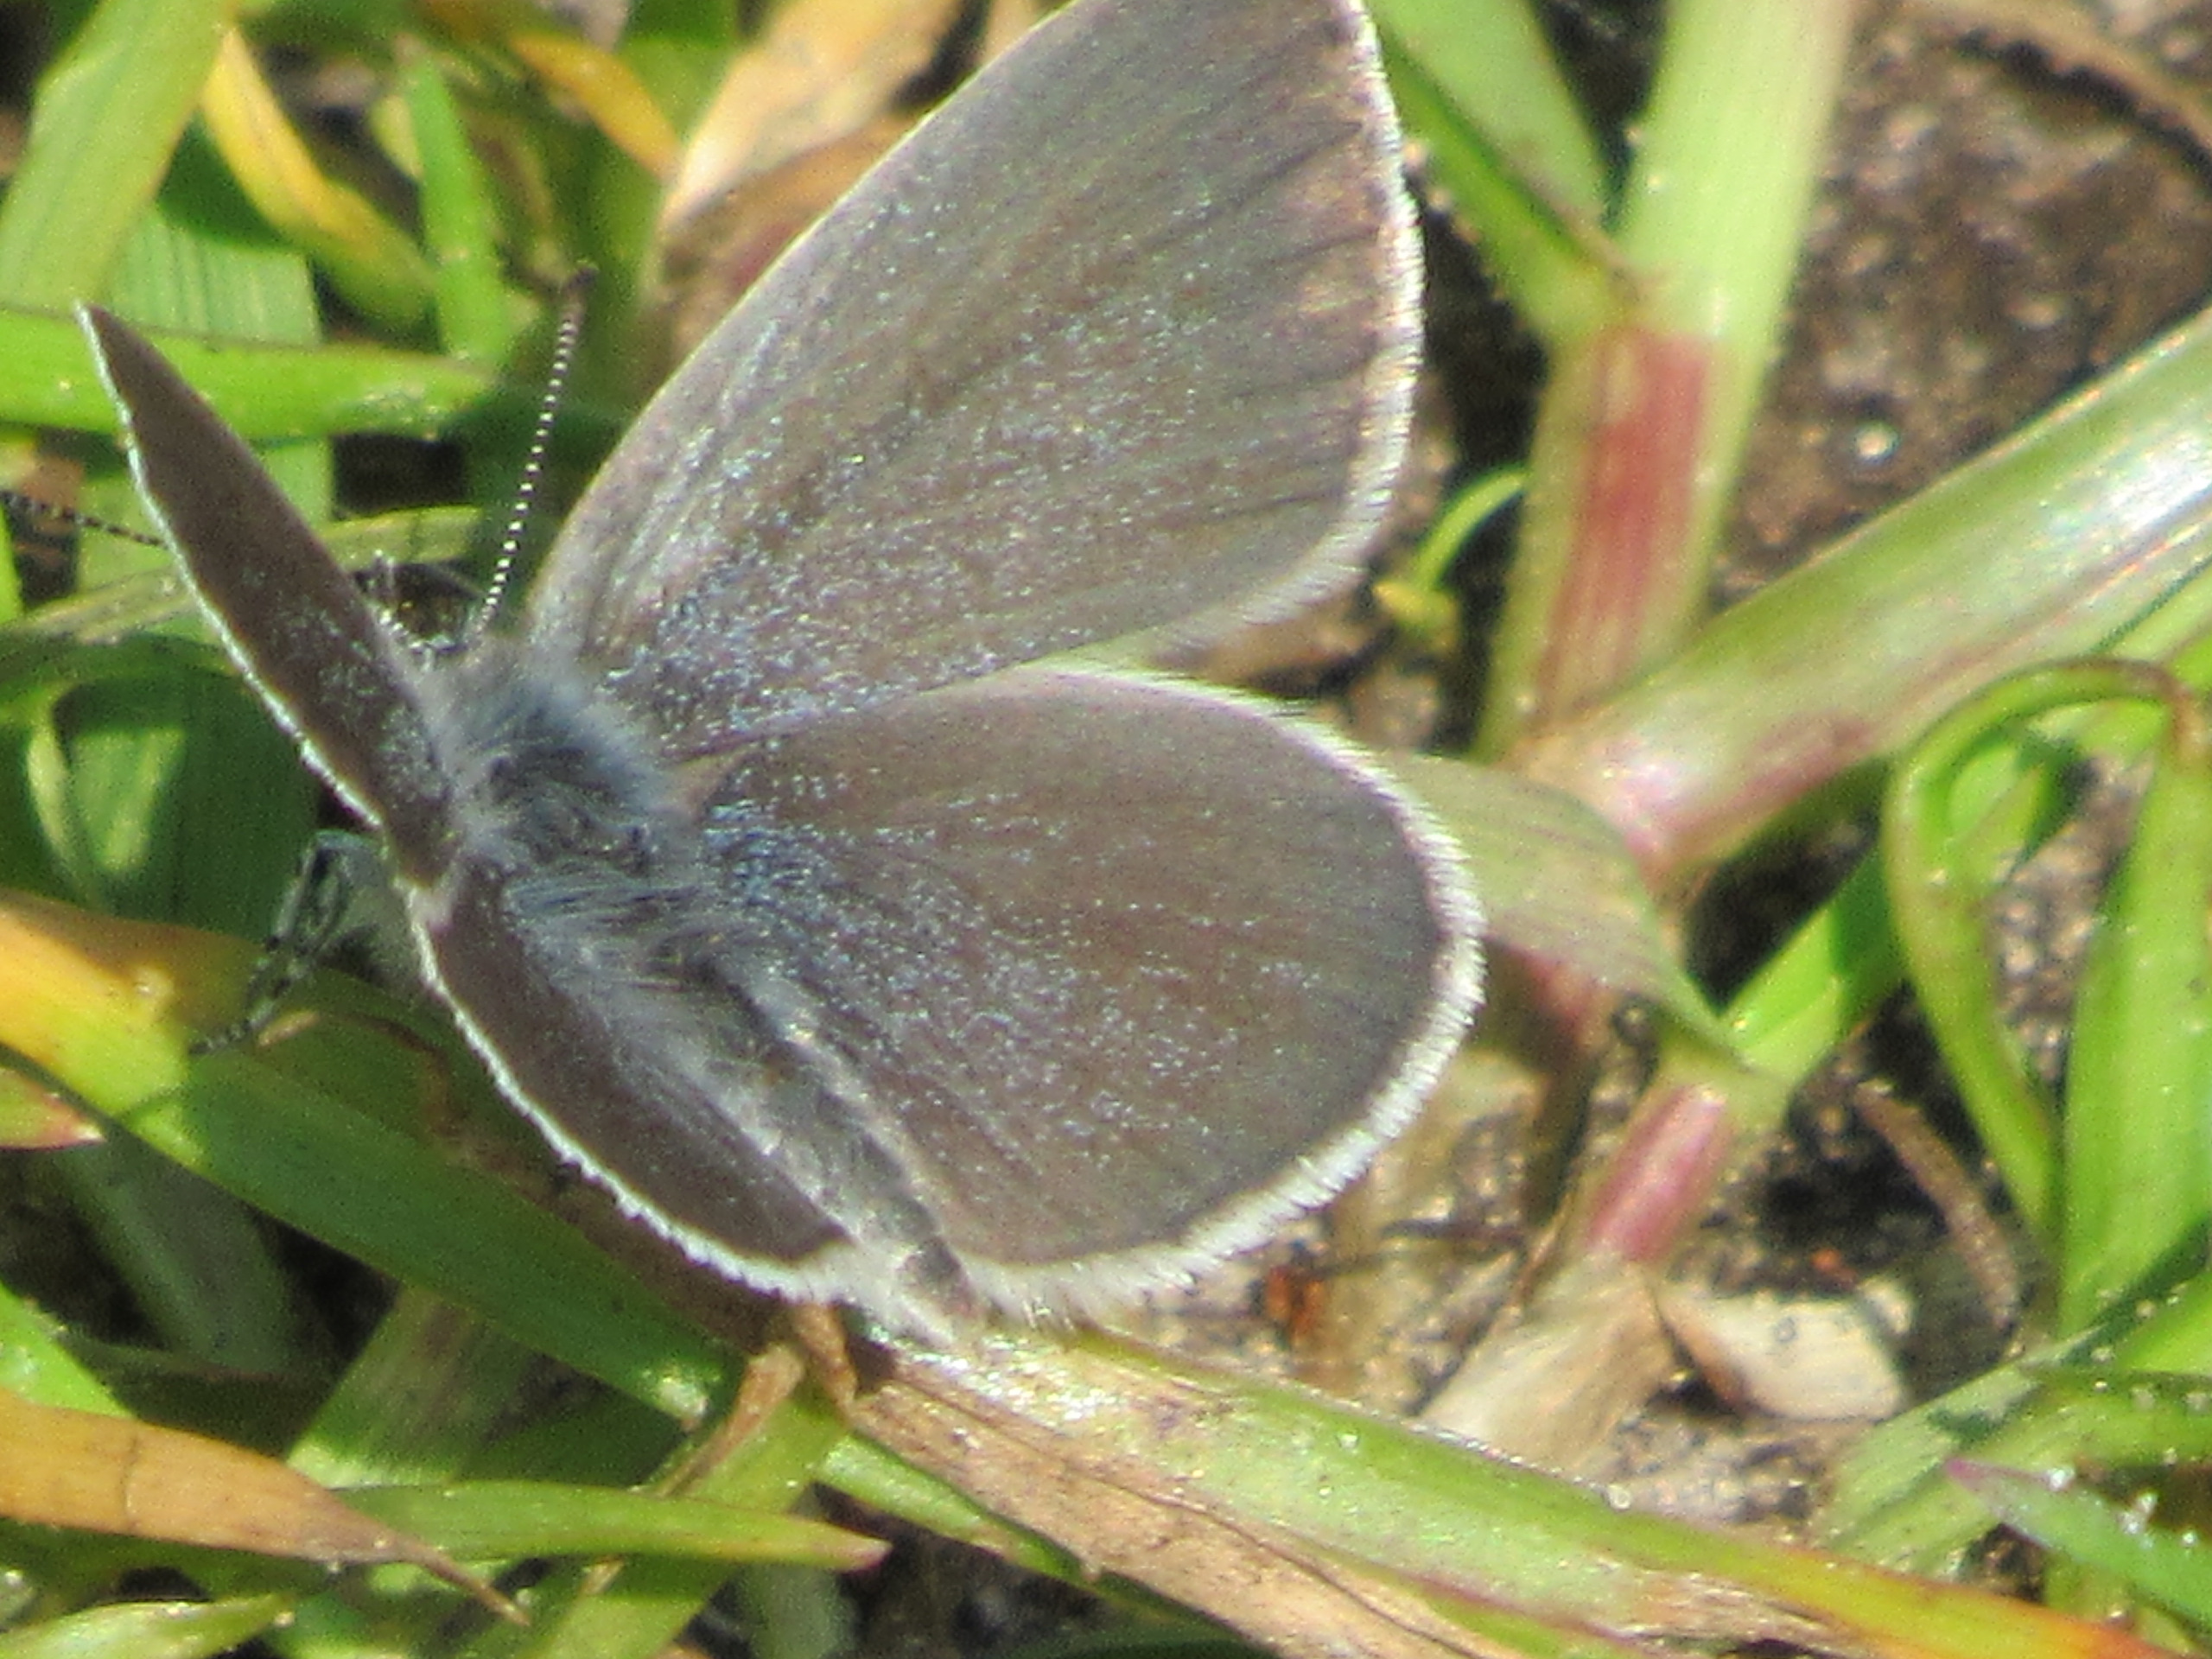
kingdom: Animalia
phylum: Arthropoda
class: Insecta
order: Lepidoptera
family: Lycaenidae
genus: Cupido
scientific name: Cupido minimus
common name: Dværgblåfugl
